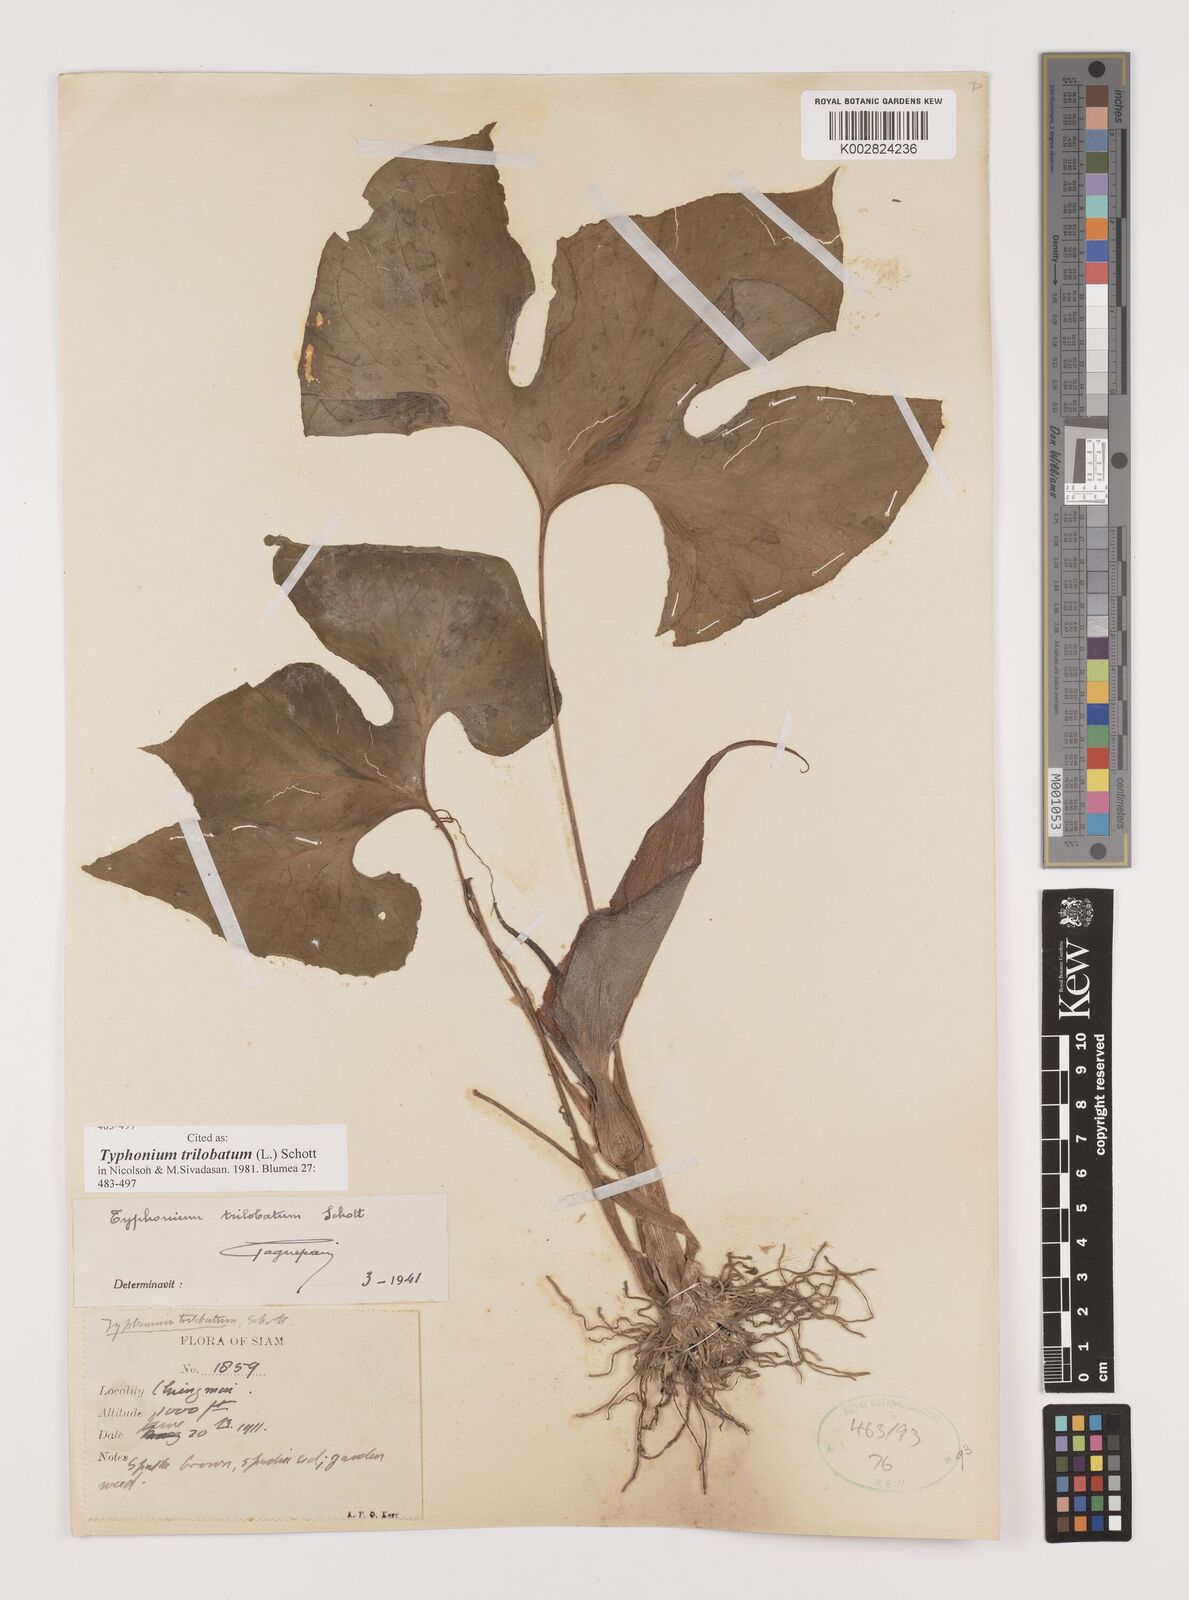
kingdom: Plantae
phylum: Tracheophyta
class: Liliopsida
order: Alismatales
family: Araceae
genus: Typhonium
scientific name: Typhonium trilobatum
